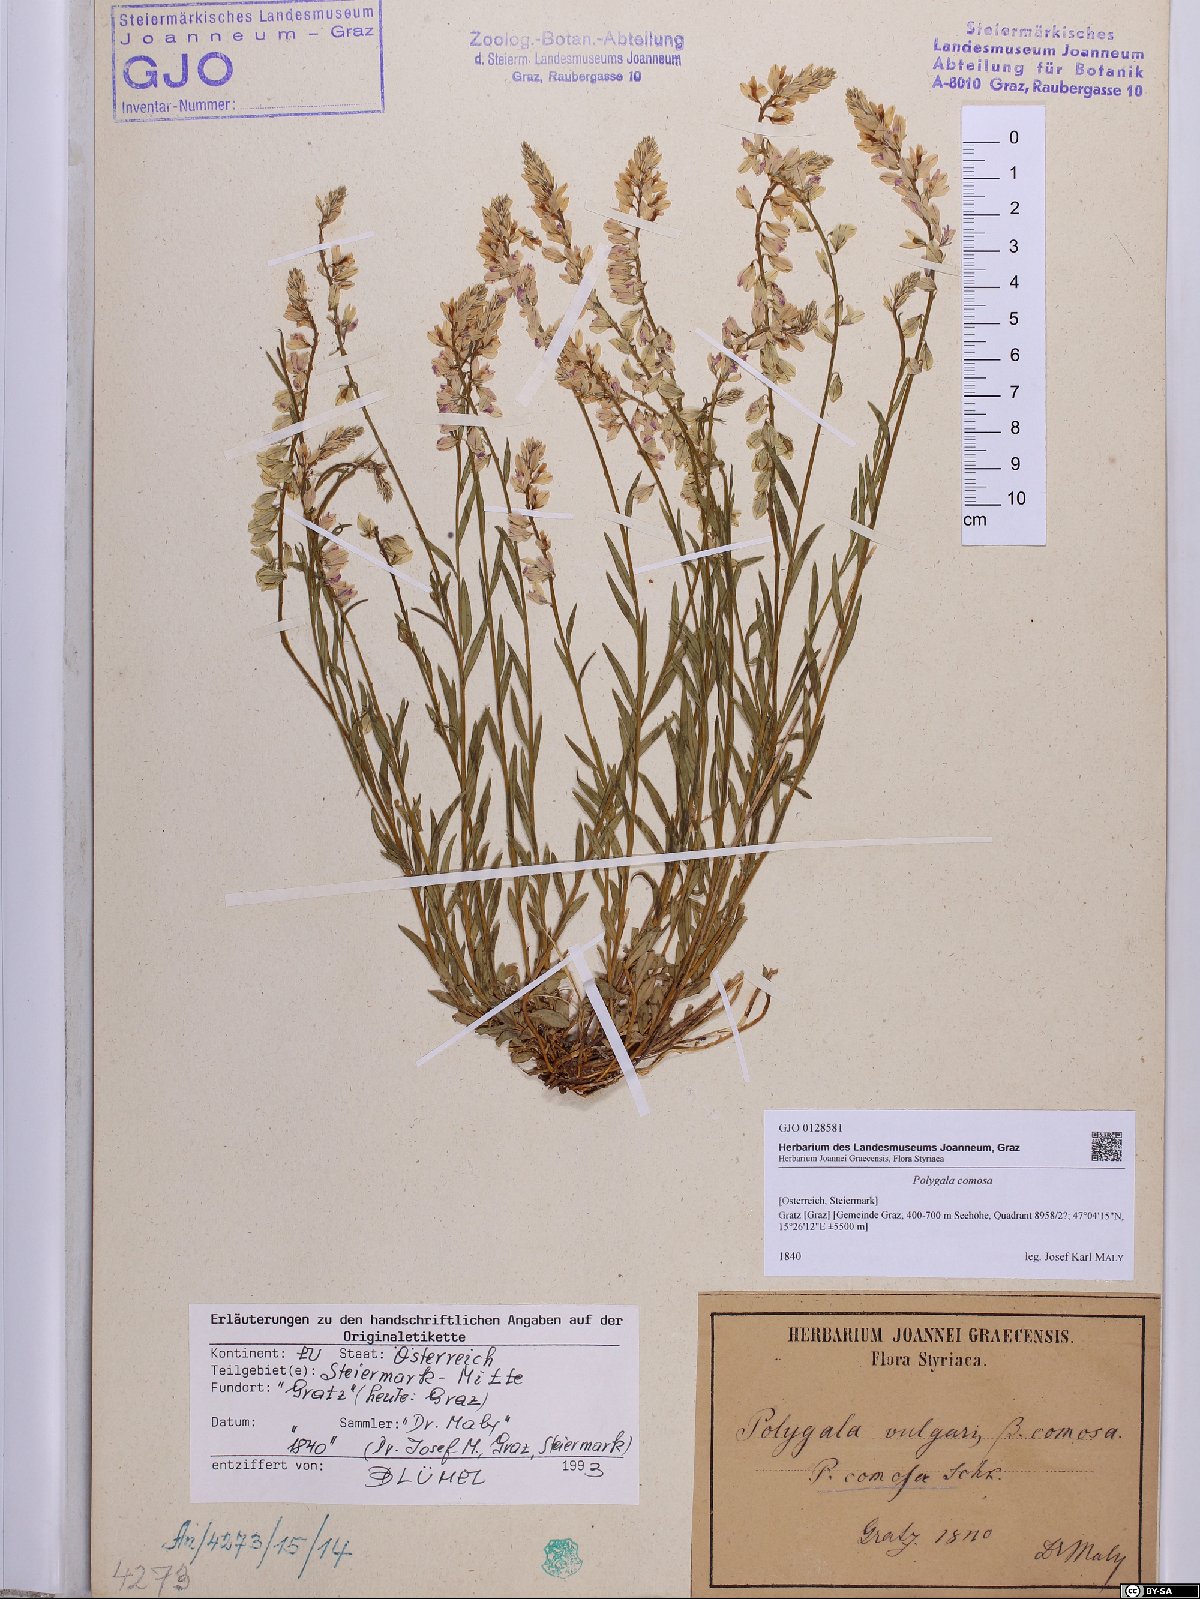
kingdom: Plantae
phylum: Tracheophyta
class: Magnoliopsida
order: Fabales
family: Polygalaceae
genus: Polygala
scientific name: Polygala comosa
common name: Tufted milkwort
